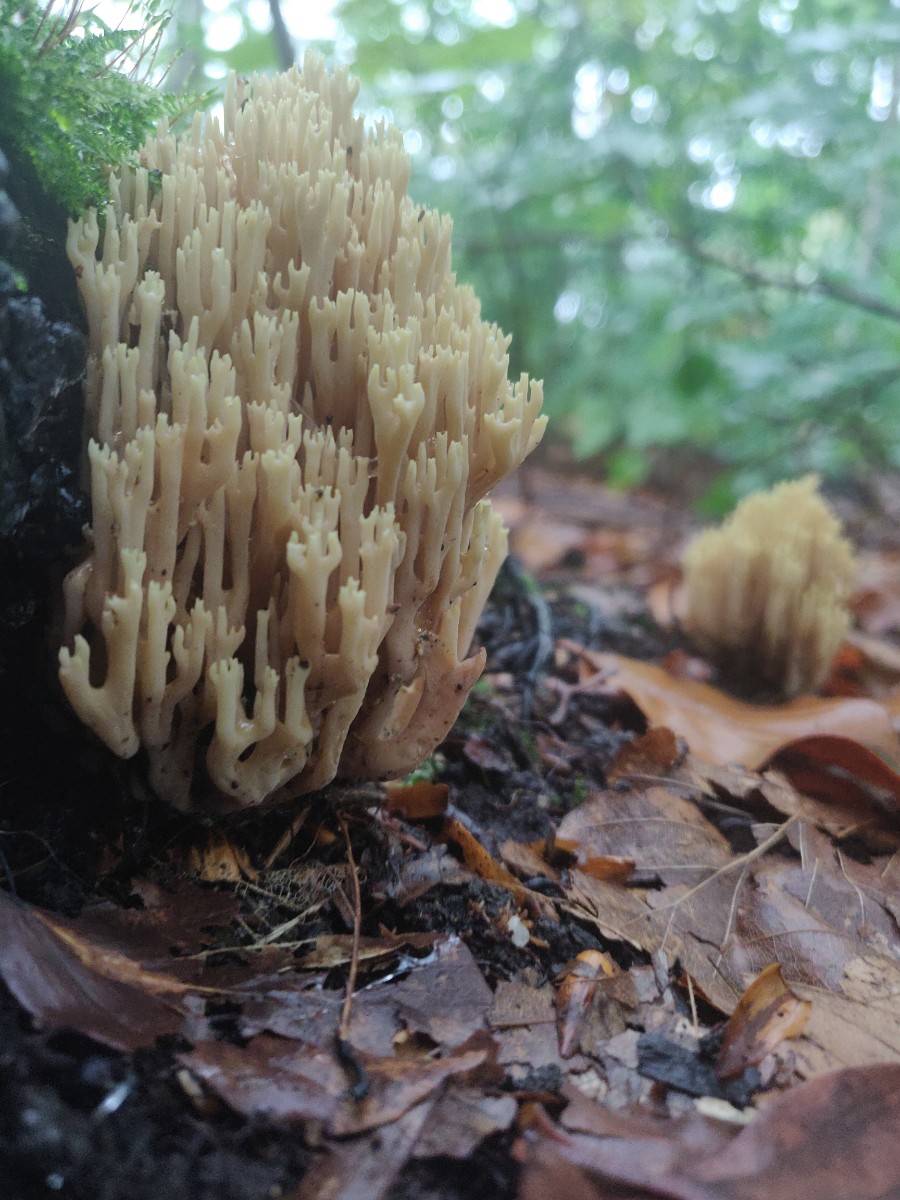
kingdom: Fungi
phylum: Basidiomycota
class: Agaricomycetes
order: Gomphales
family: Gomphaceae
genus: Ramaria
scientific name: Ramaria stricta
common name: rank koralsvamp
